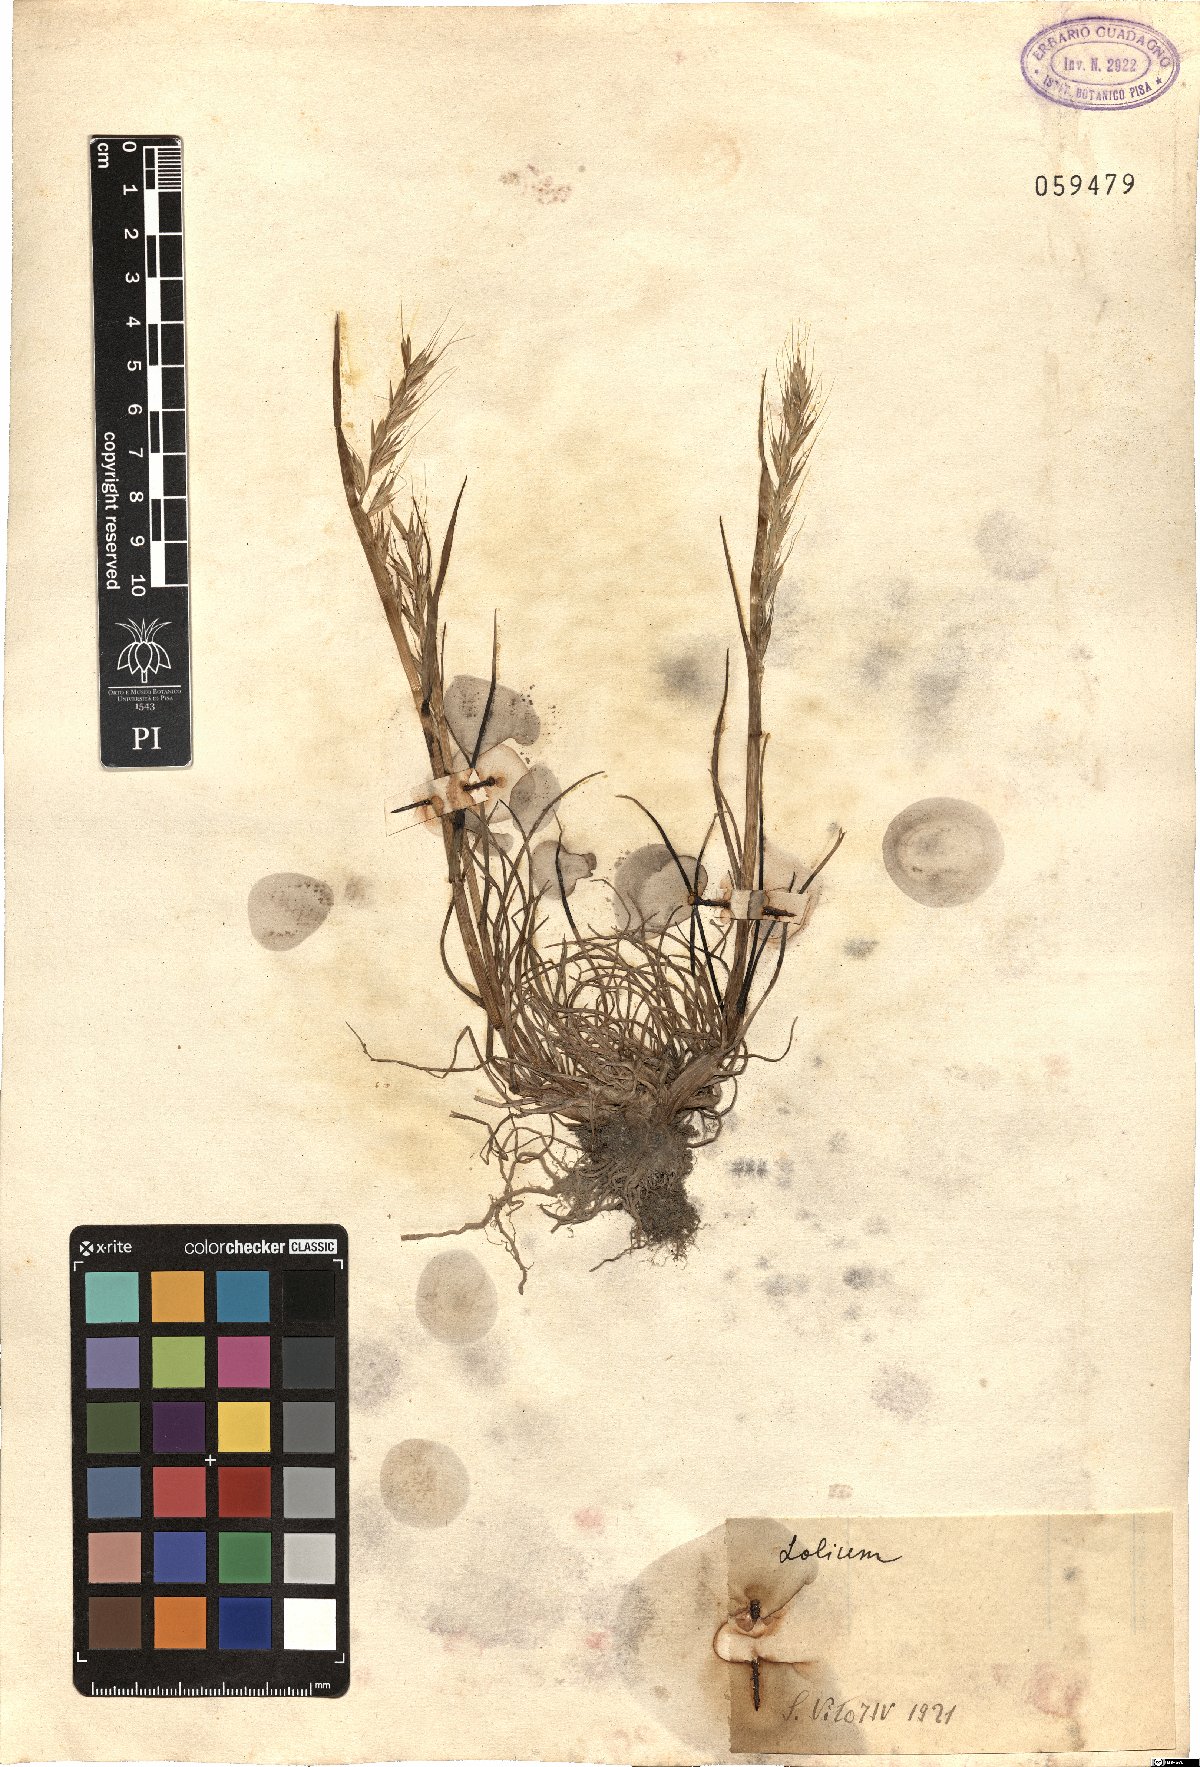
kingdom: Plantae
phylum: Tracheophyta
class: Liliopsida
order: Poales
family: Poaceae
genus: Lolium
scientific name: Lolium
